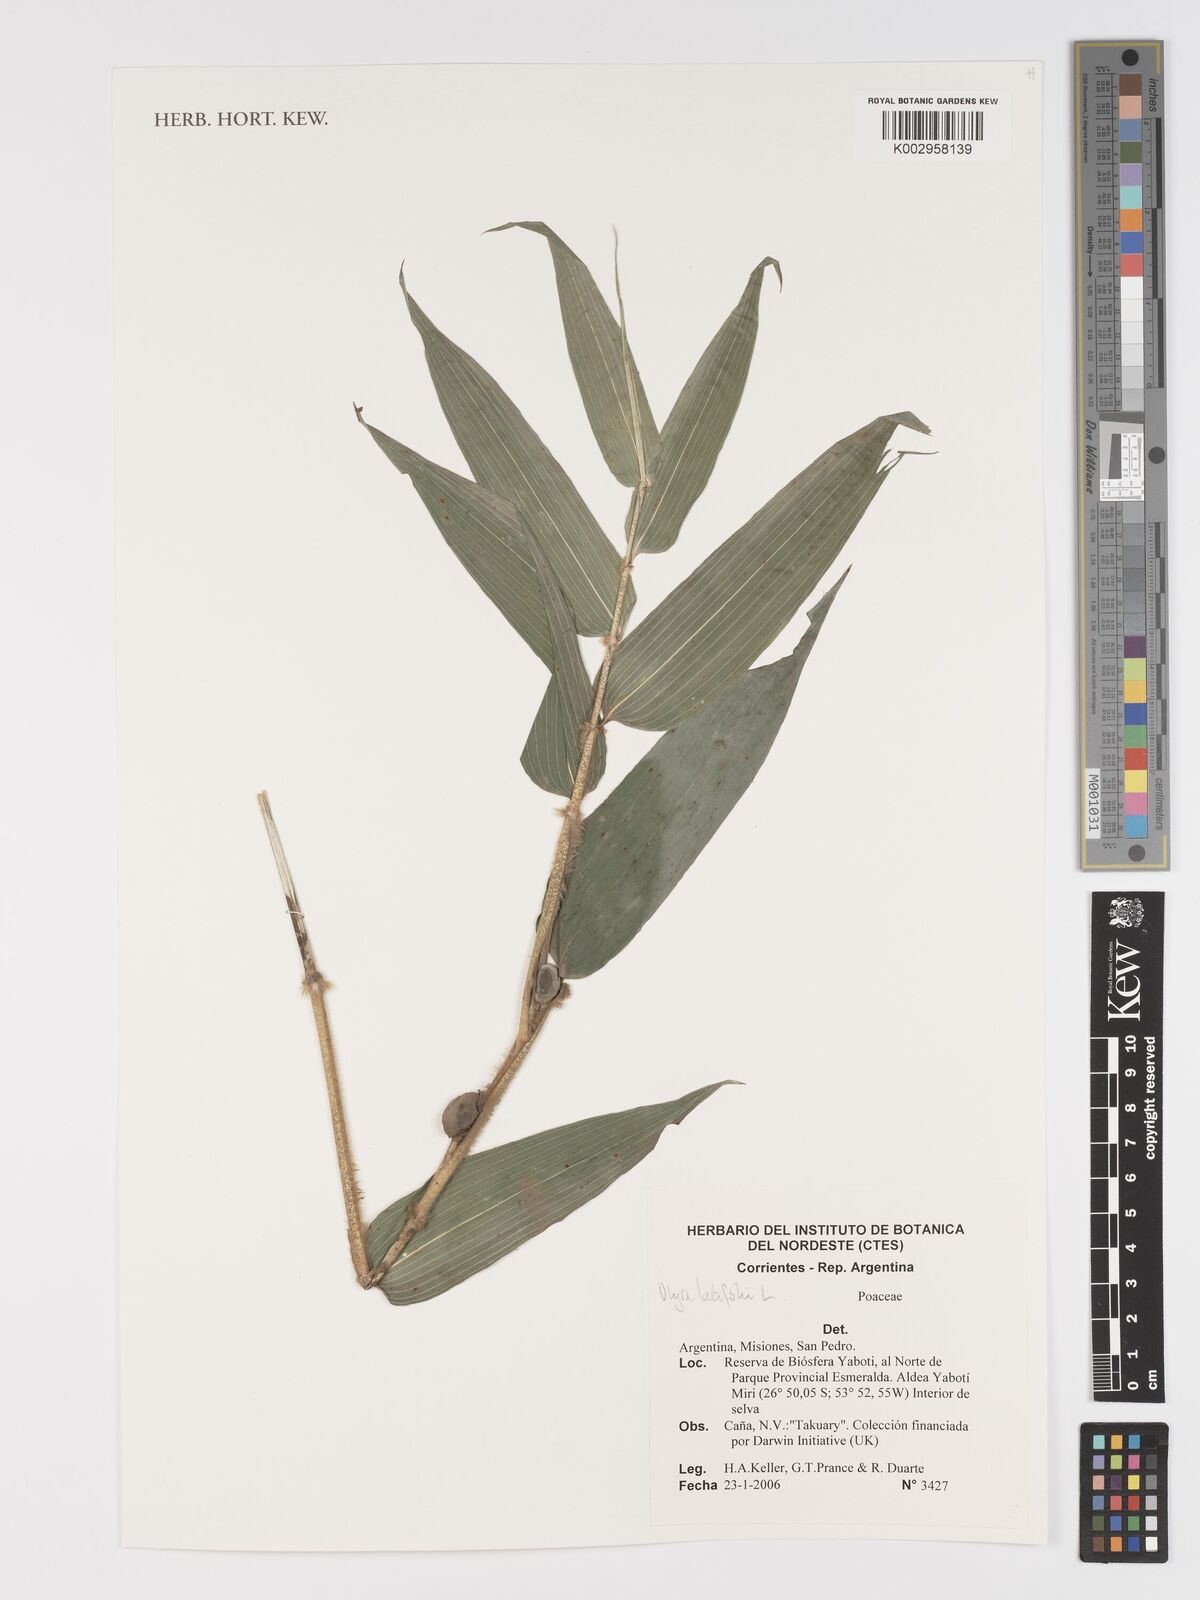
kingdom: Plantae
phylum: Tracheophyta
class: Liliopsida
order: Poales
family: Poaceae
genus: Olyra
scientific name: Olyra latifolia
